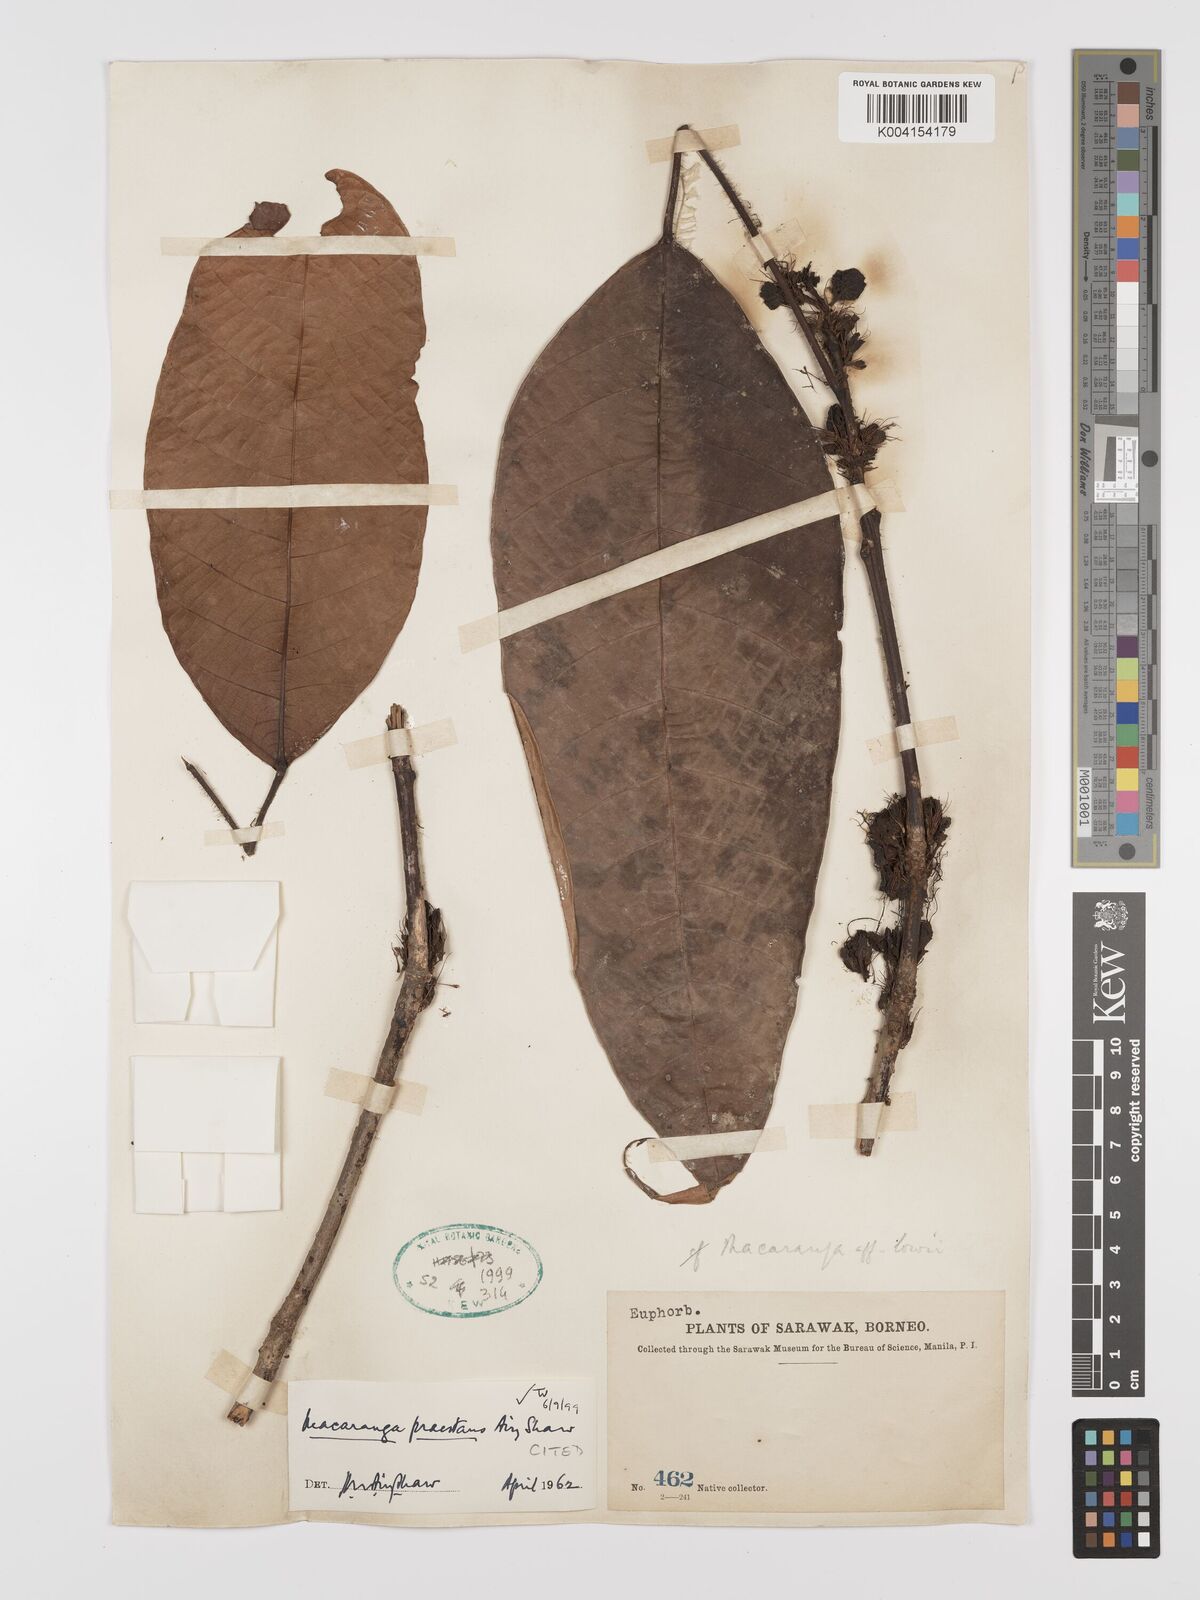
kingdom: Plantae
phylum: Tracheophyta
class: Magnoliopsida
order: Malpighiales
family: Euphorbiaceae
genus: Macaranga
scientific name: Macaranga praestans
